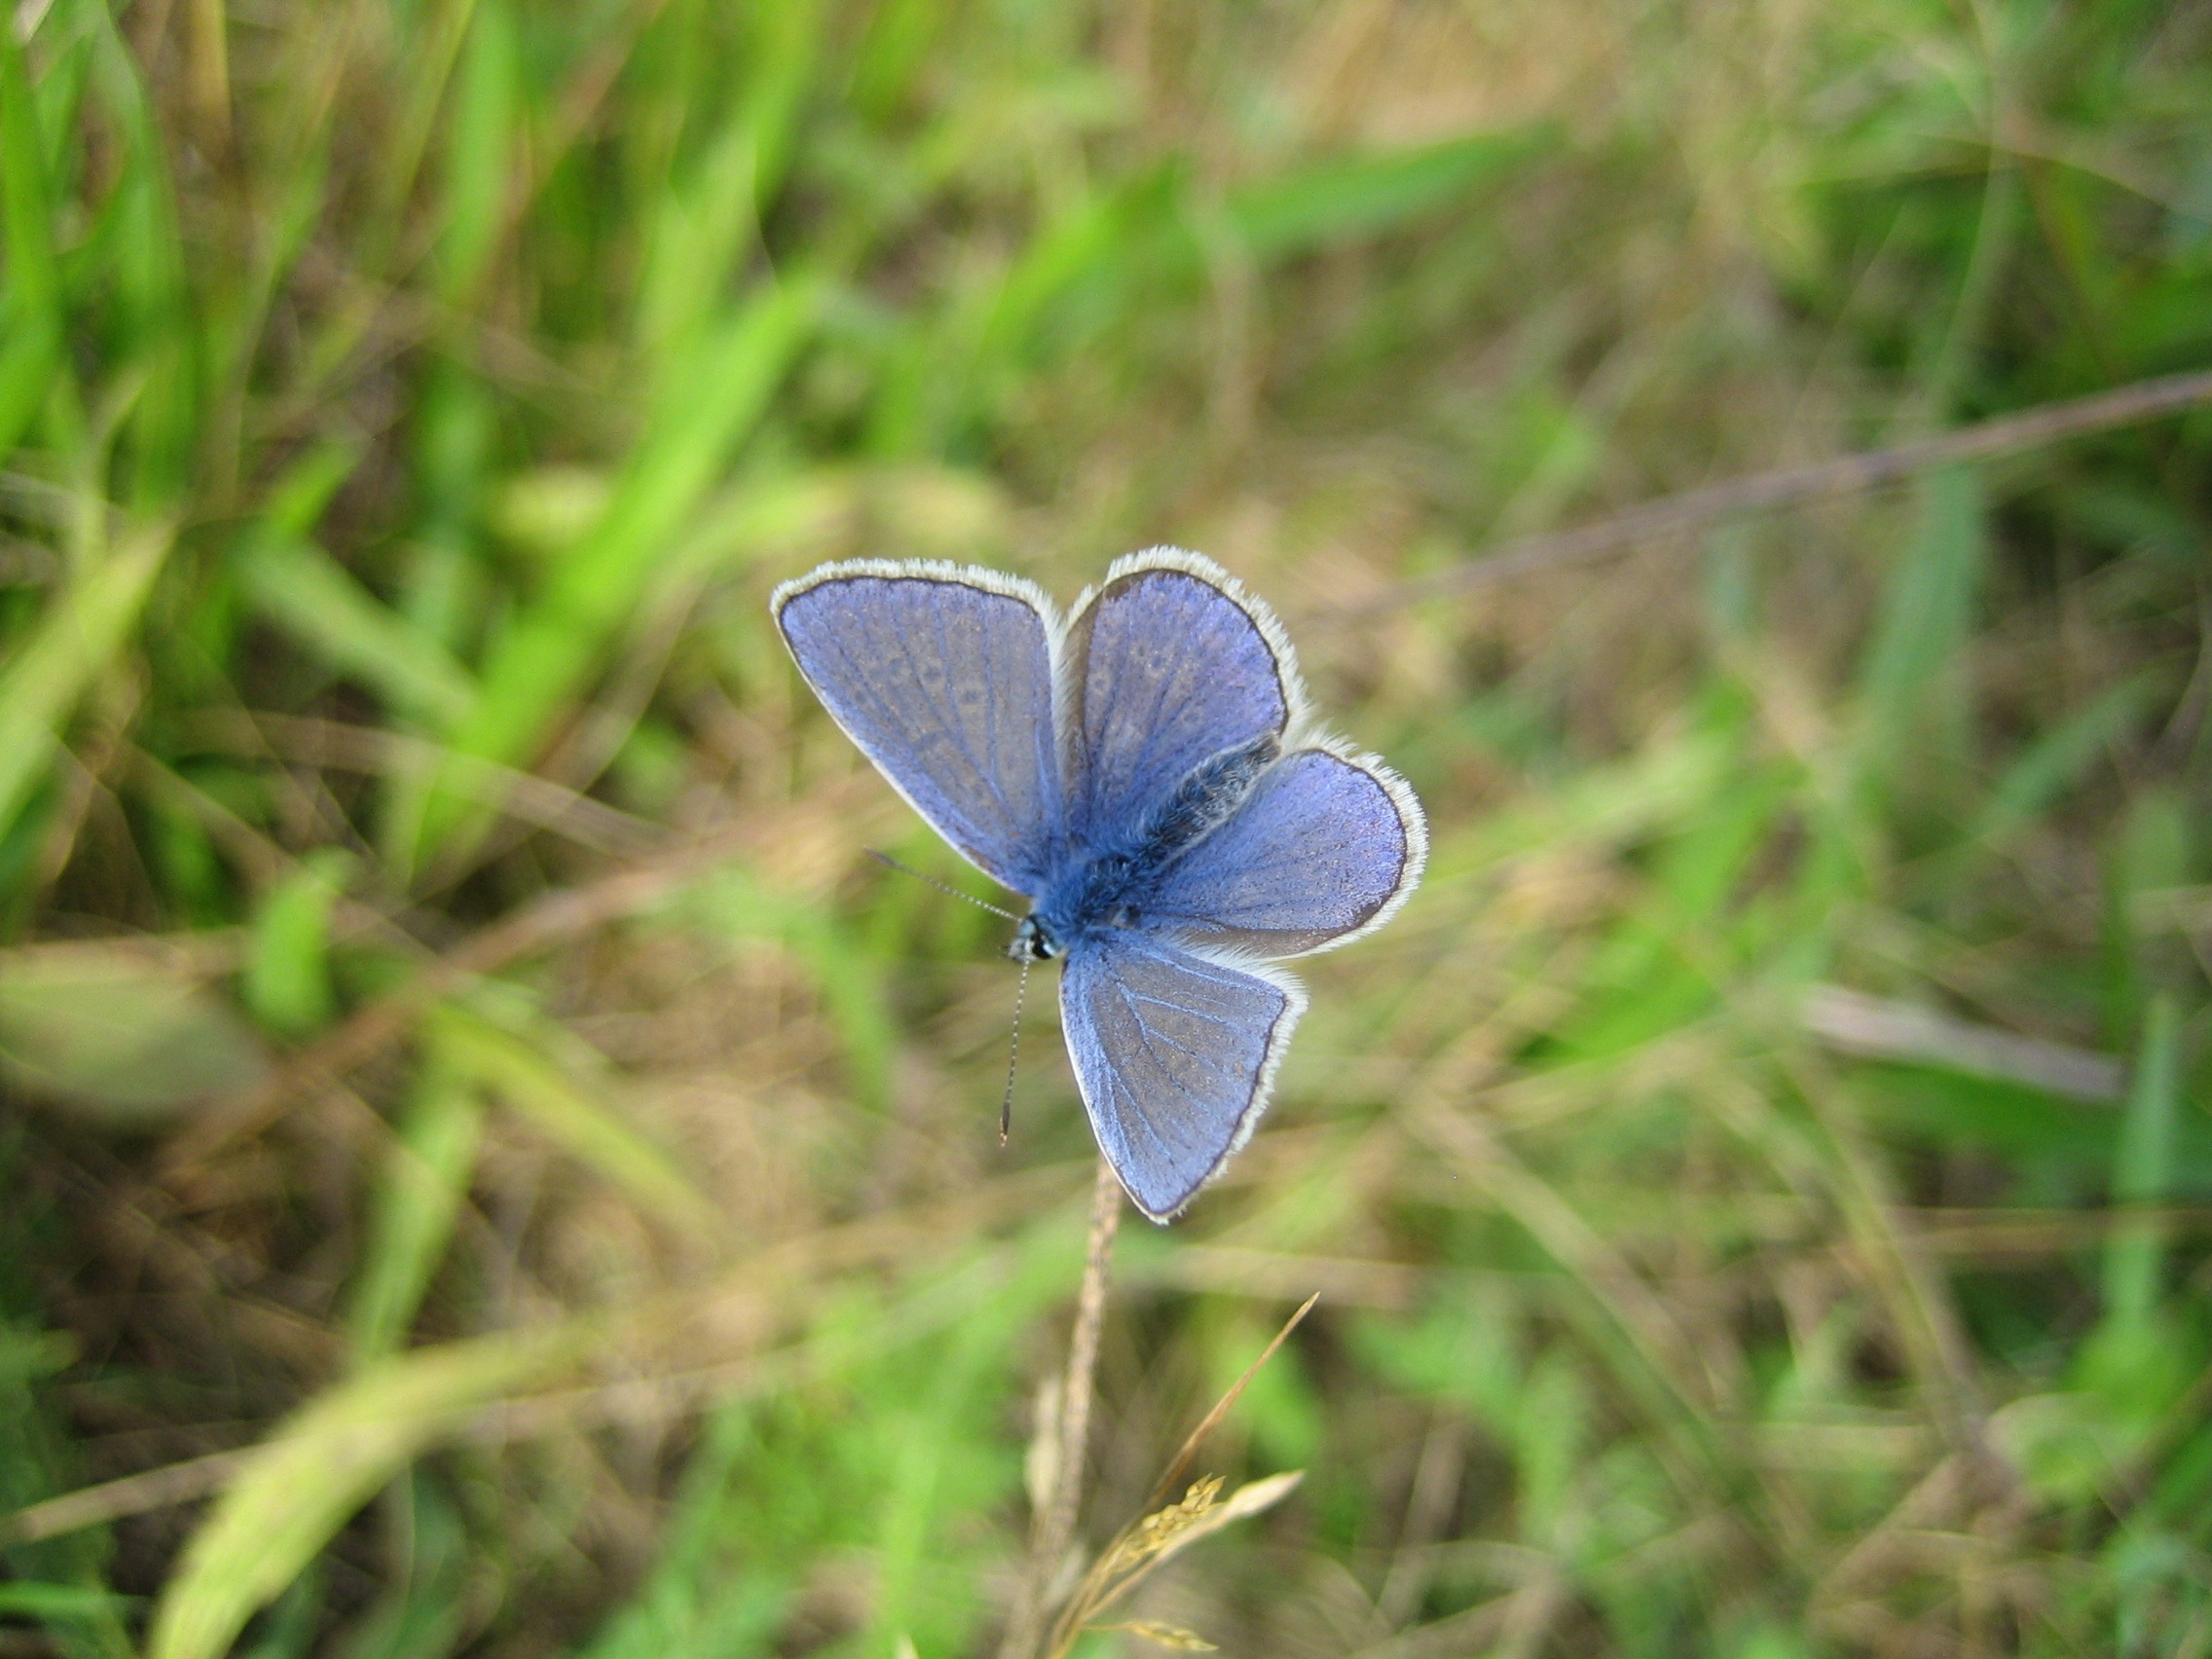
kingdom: Animalia
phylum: Arthropoda
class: Insecta
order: Lepidoptera
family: Lycaenidae
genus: Polyommatus
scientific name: Polyommatus icarus
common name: Almindelig blåfugl
